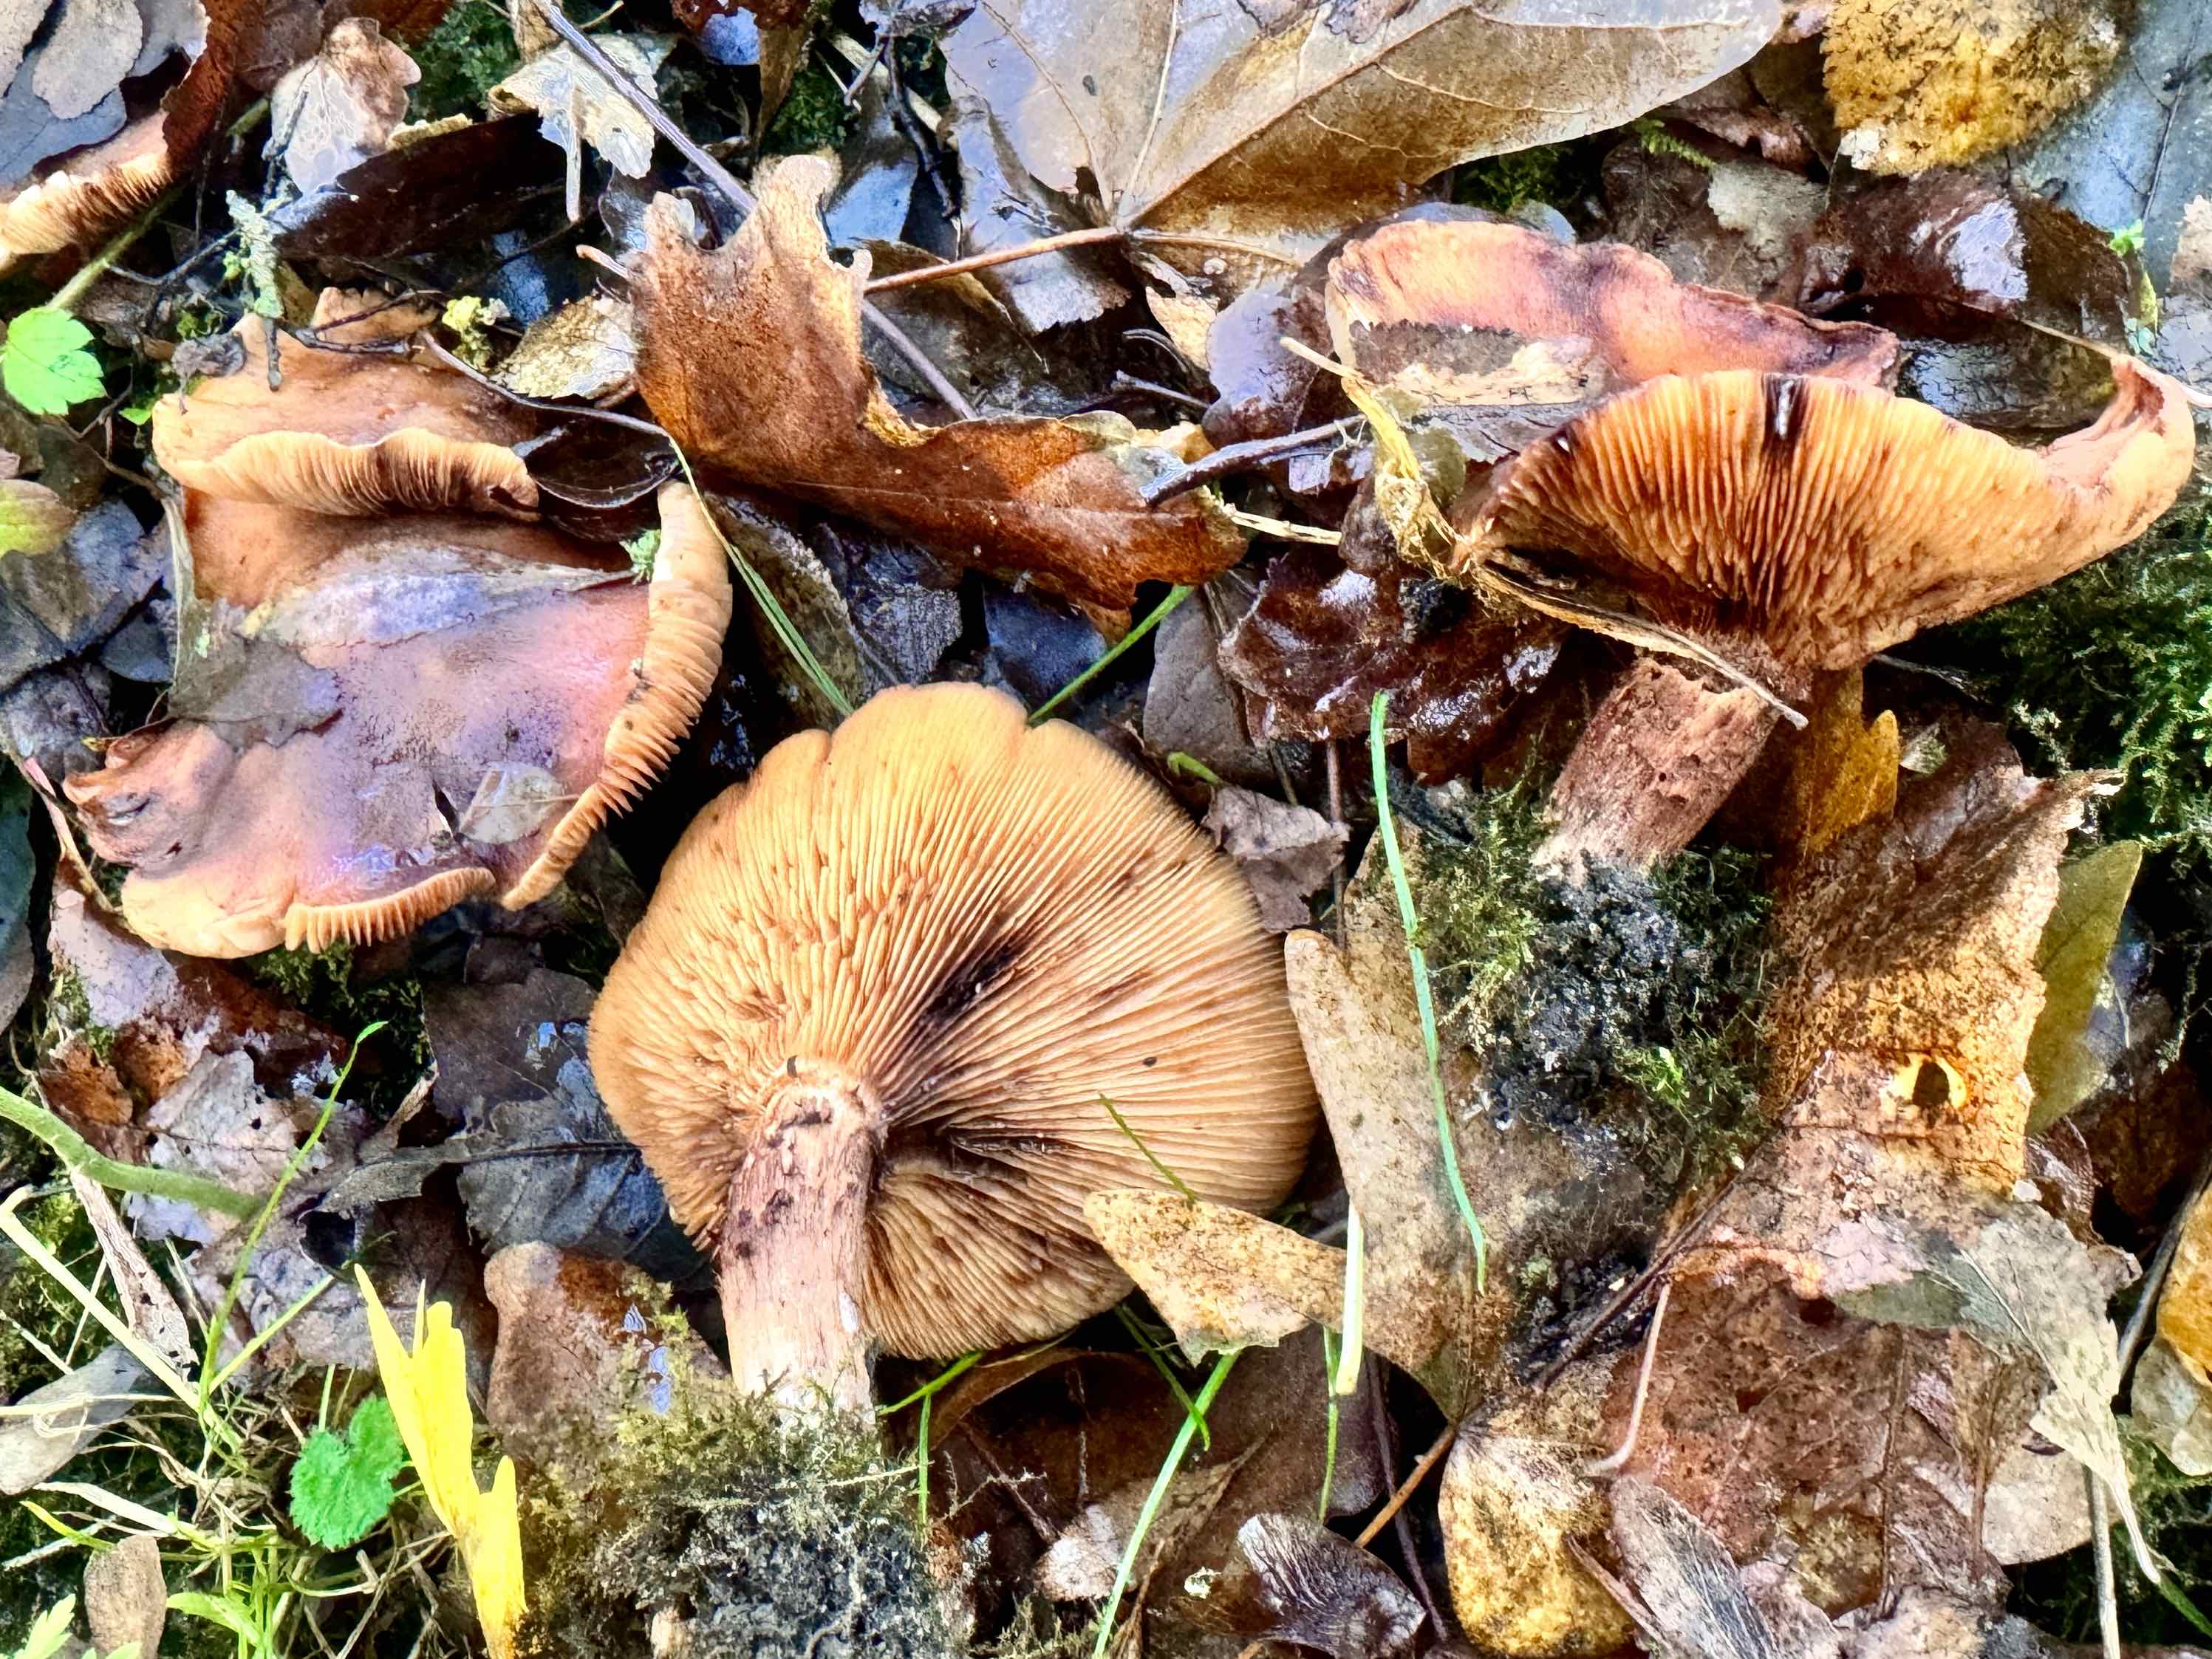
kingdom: Fungi
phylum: Basidiomycota
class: Agaricomycetes
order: Agaricales
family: Tricholomataceae
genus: Tricholoma
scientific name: Tricholoma fulvum
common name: birke-ridderhat
